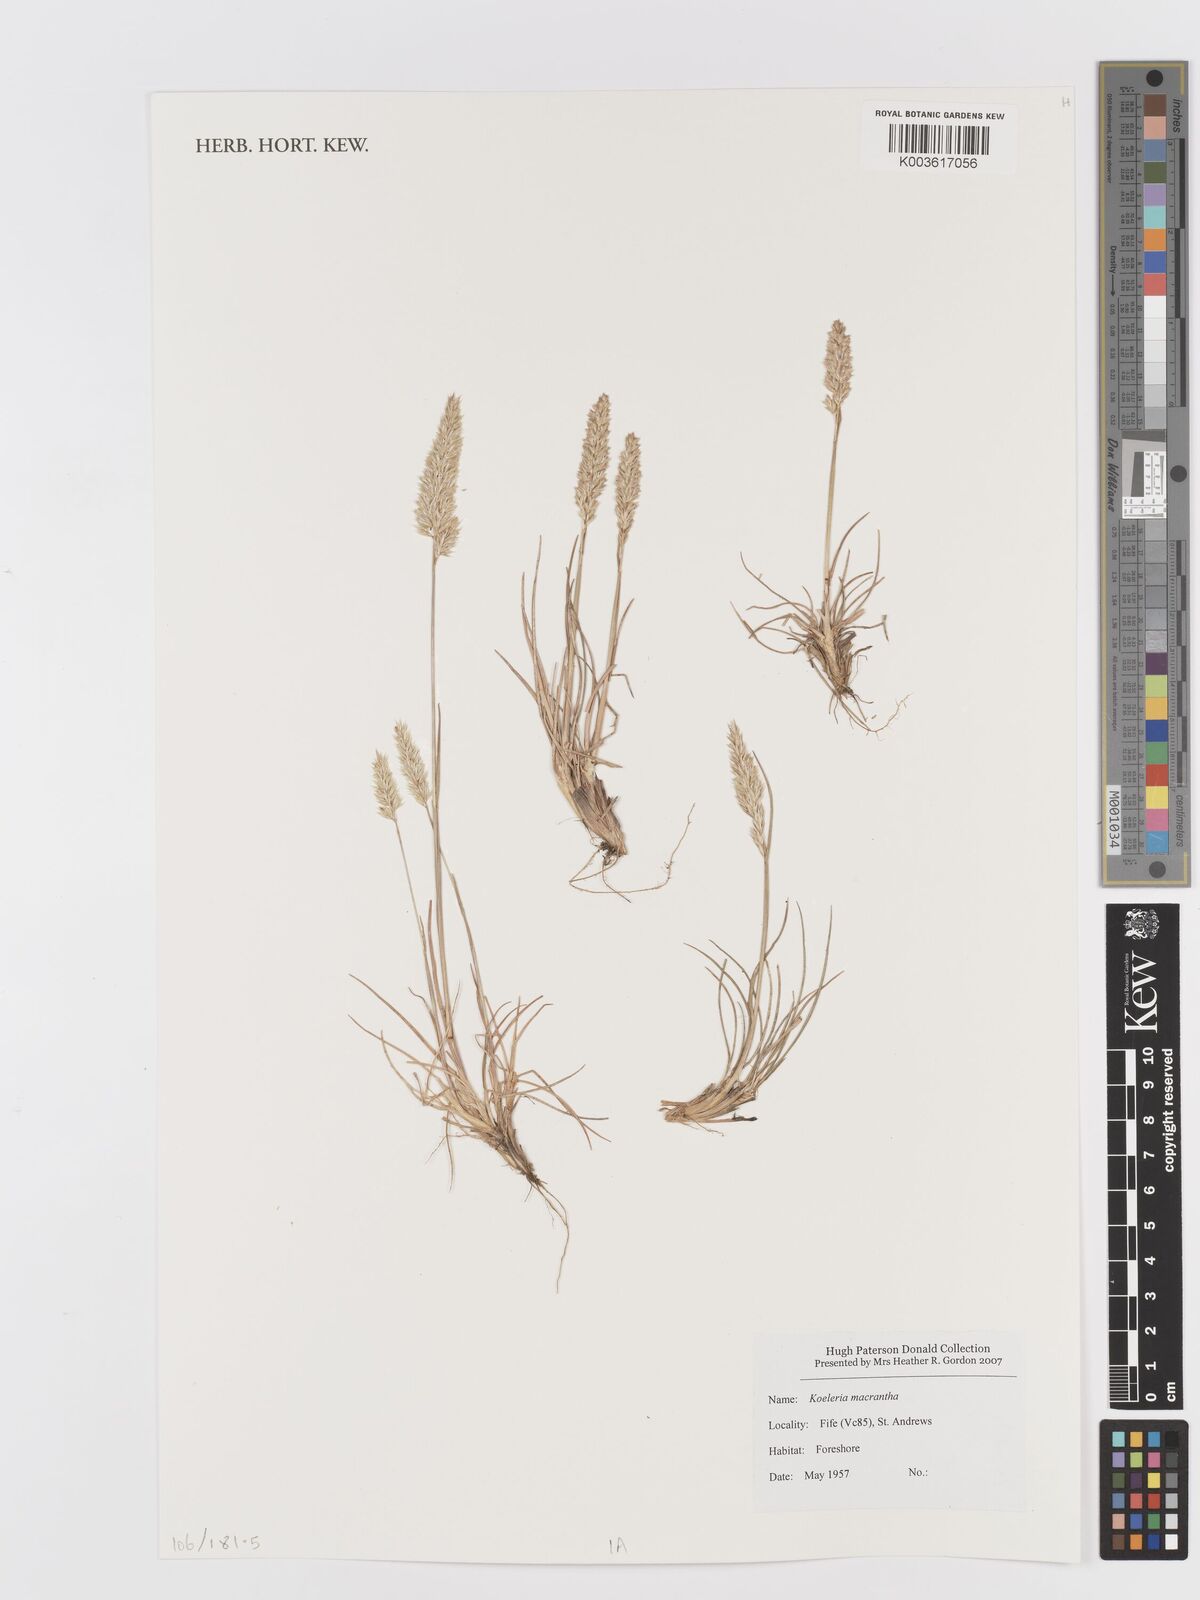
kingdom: Plantae
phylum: Tracheophyta
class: Liliopsida
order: Poales
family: Poaceae
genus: Koeleria
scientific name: Koeleria macrantha
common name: Crested hair-grass
